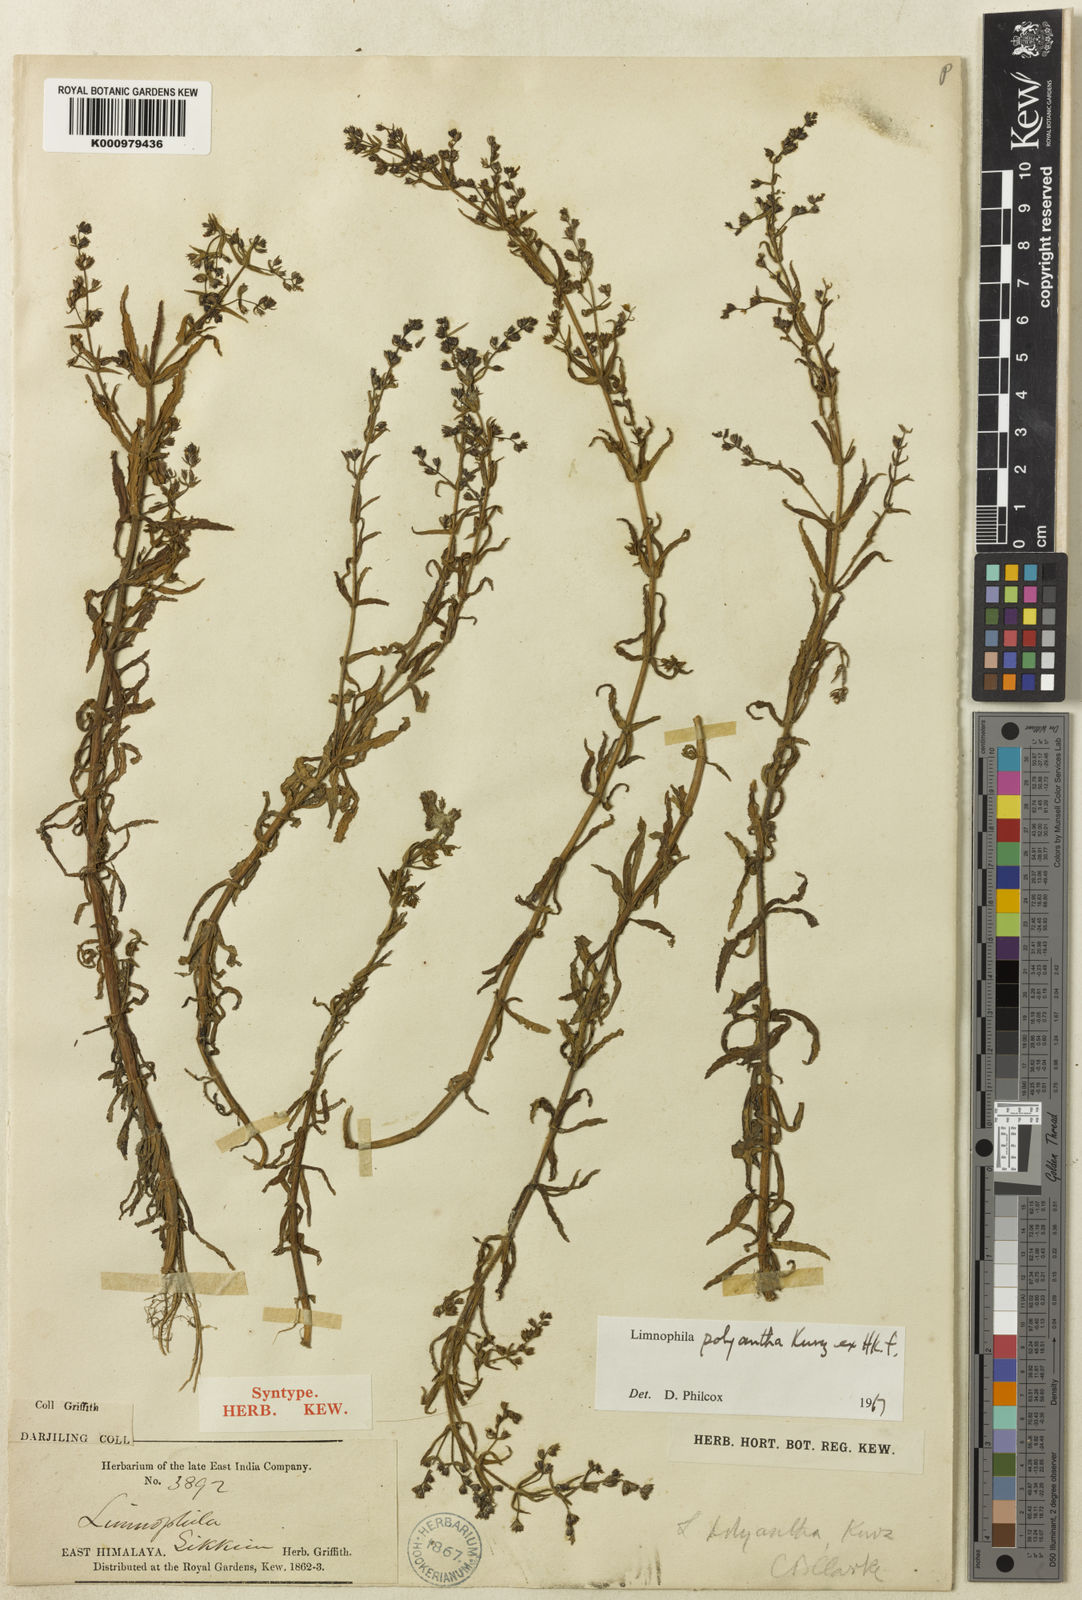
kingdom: Plantae
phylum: Tracheophyta
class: Magnoliopsida
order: Lamiales
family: Plantaginaceae
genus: Limnophila
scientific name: Limnophila polyantha
